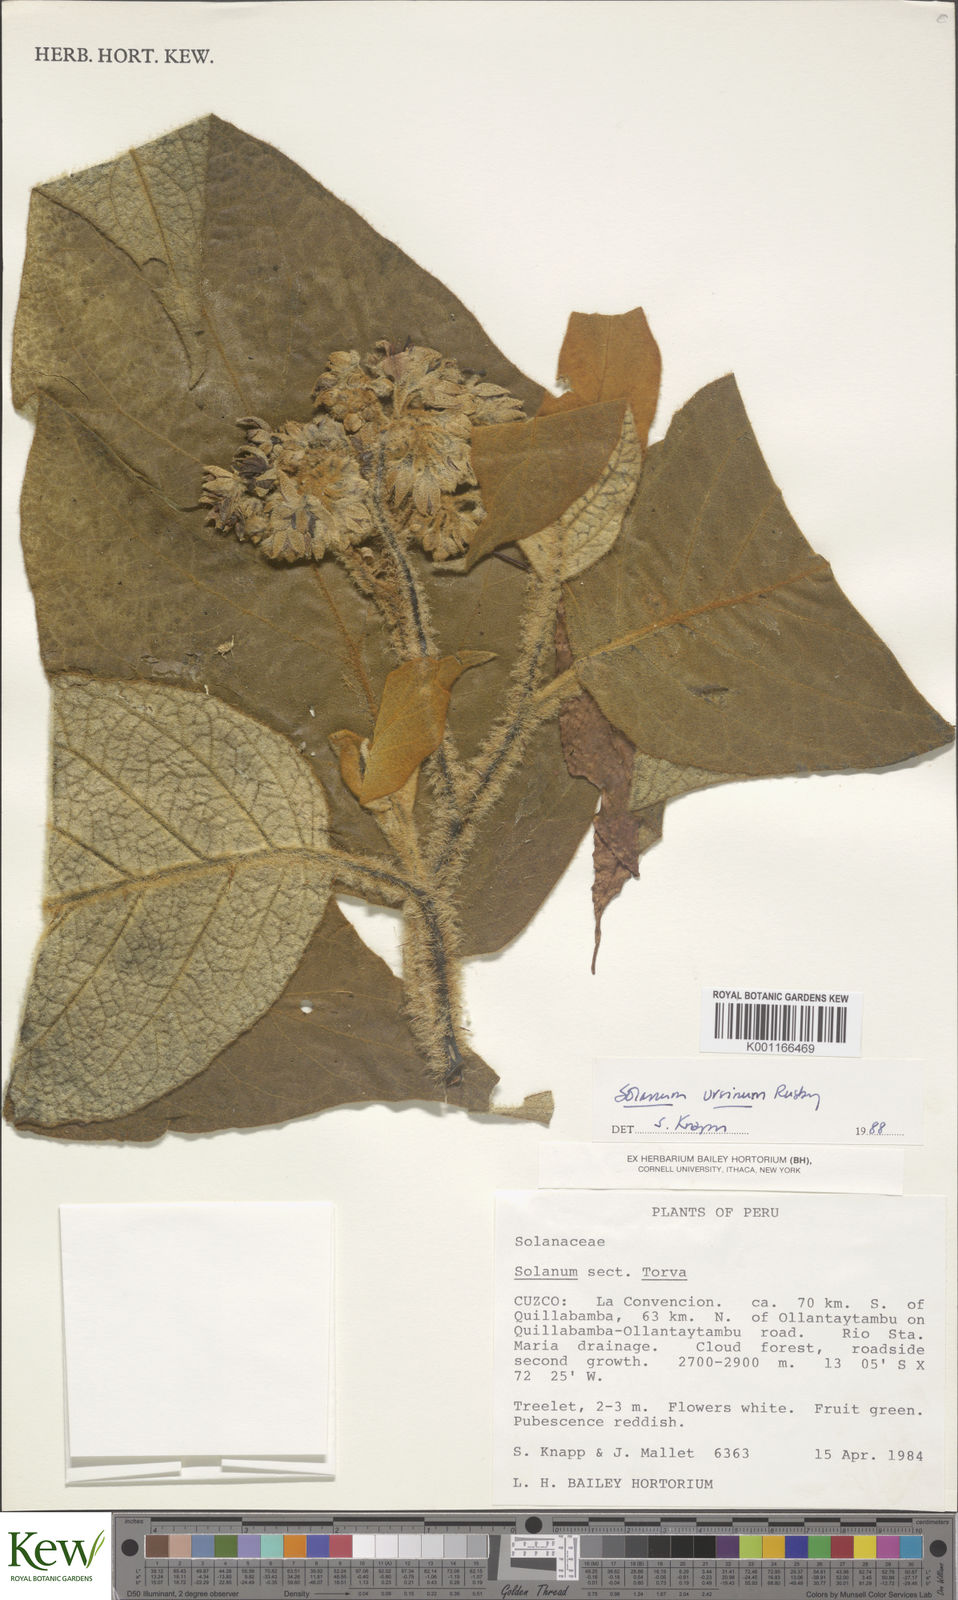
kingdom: Plantae
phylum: Tracheophyta
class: Magnoliopsida
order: Solanales
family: Solanaceae
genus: Solanum
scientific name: Solanum ursinum
